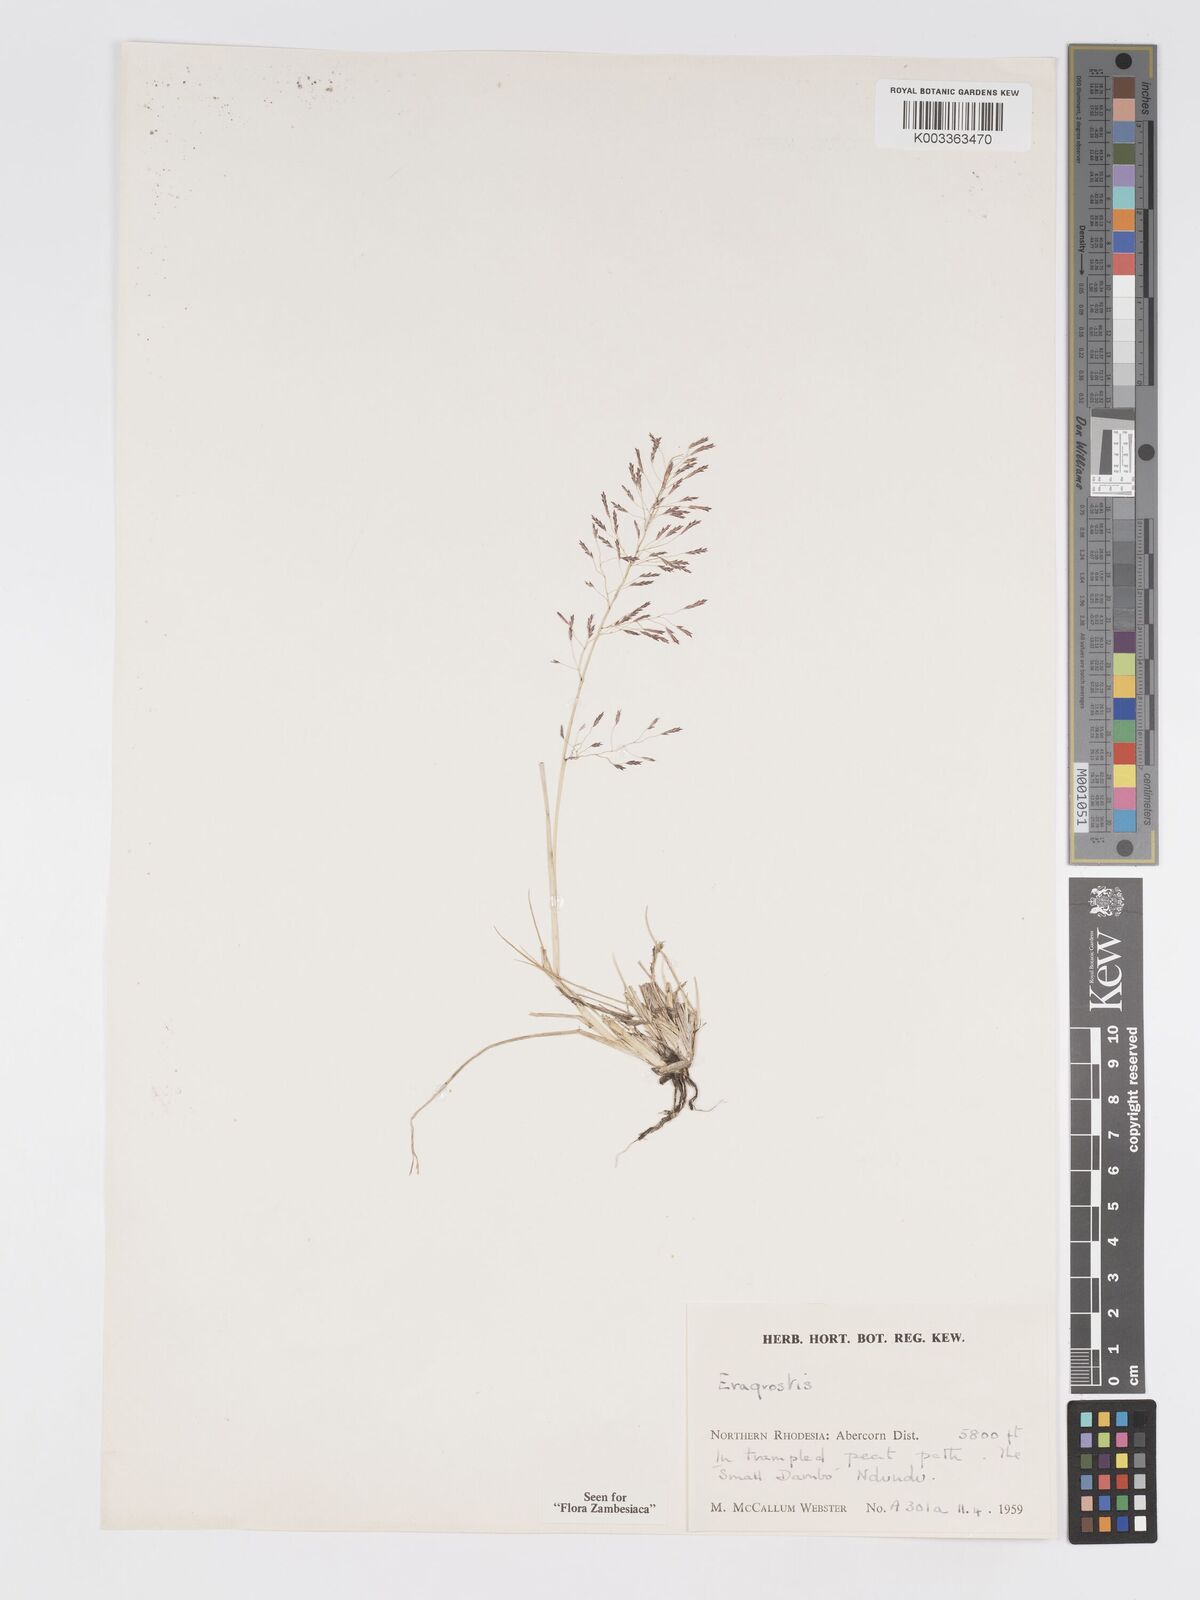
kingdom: Plantae
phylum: Tracheophyta
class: Liliopsida
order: Poales
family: Poaceae
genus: Eragrostis
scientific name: Eragrostis tenuifolia
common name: Elastic grass
